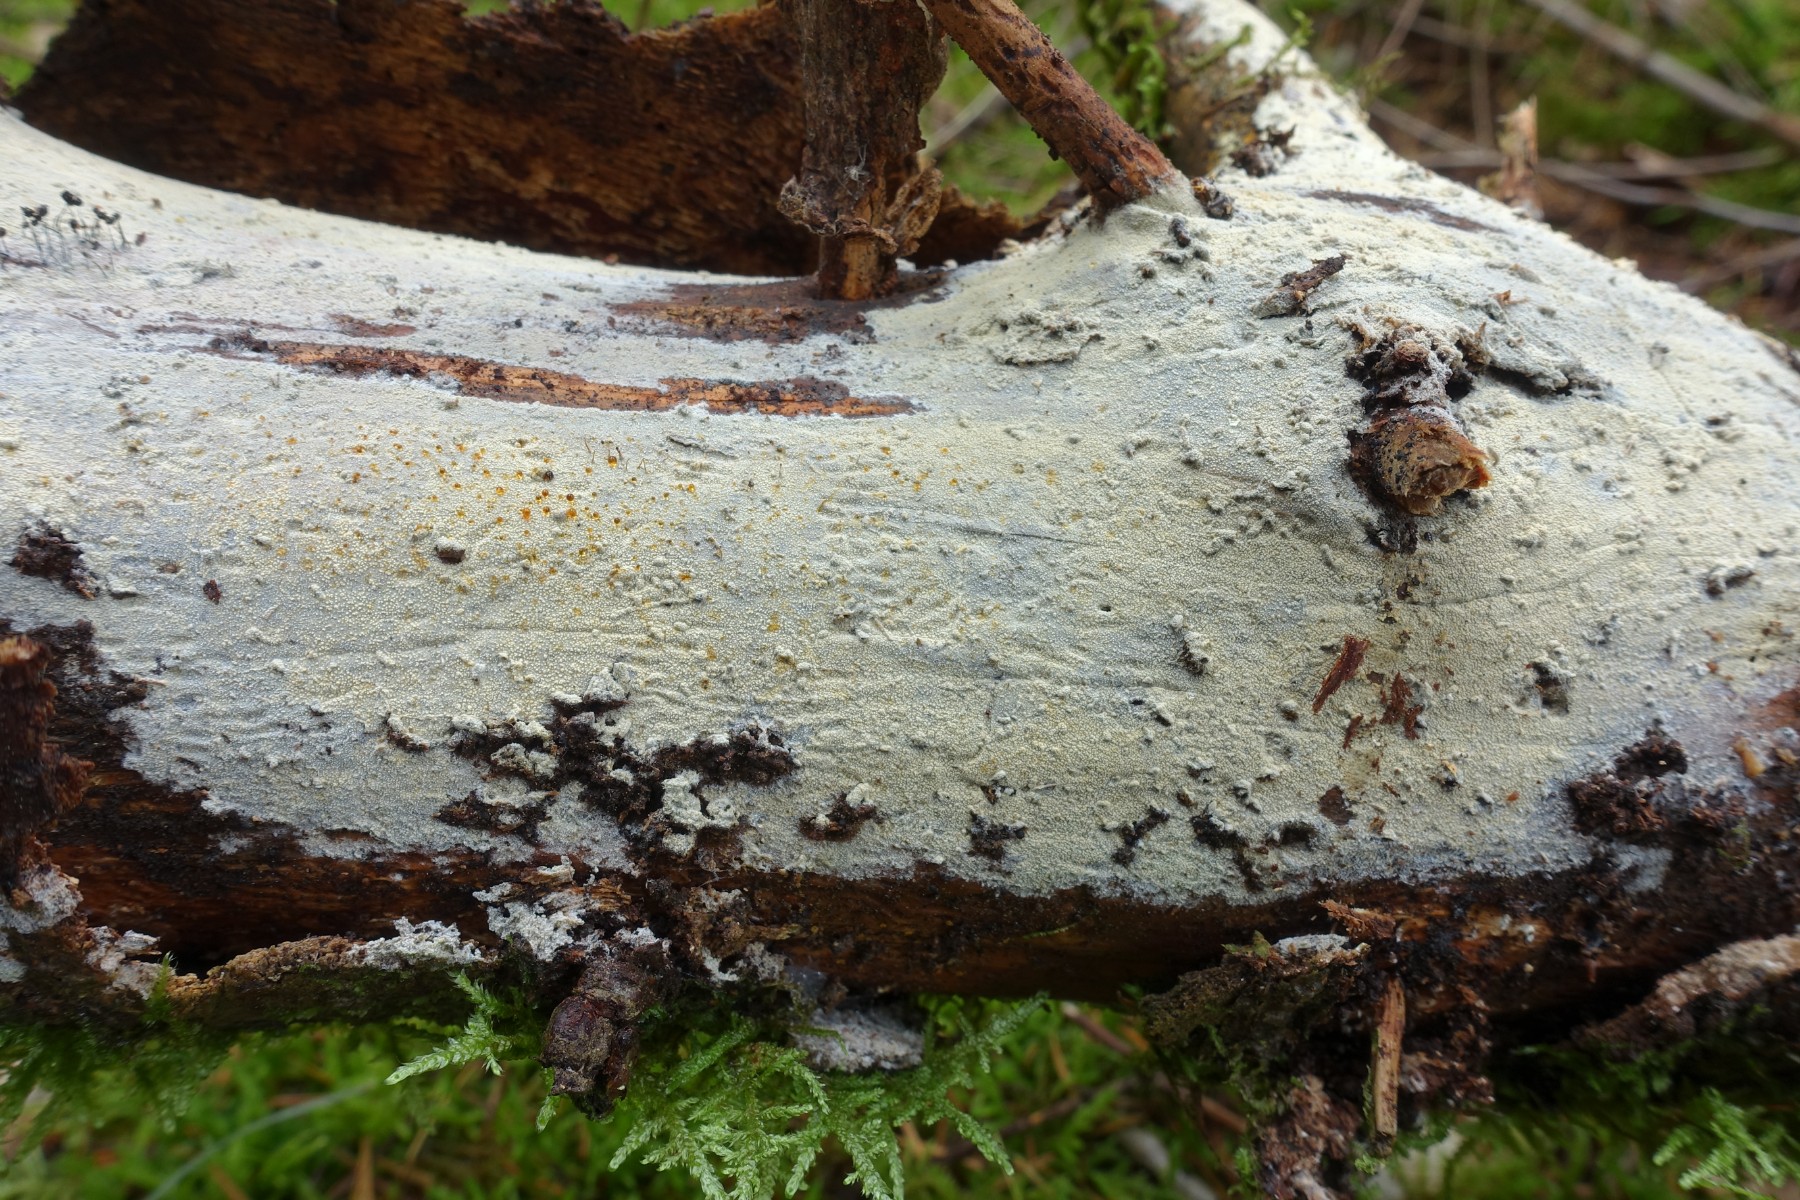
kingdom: Fungi
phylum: Basidiomycota
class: Agaricomycetes
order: Hymenochaetales
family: Rickenellaceae
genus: Resinicium
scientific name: Resinicium bicolor
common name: almindelig vokstand
